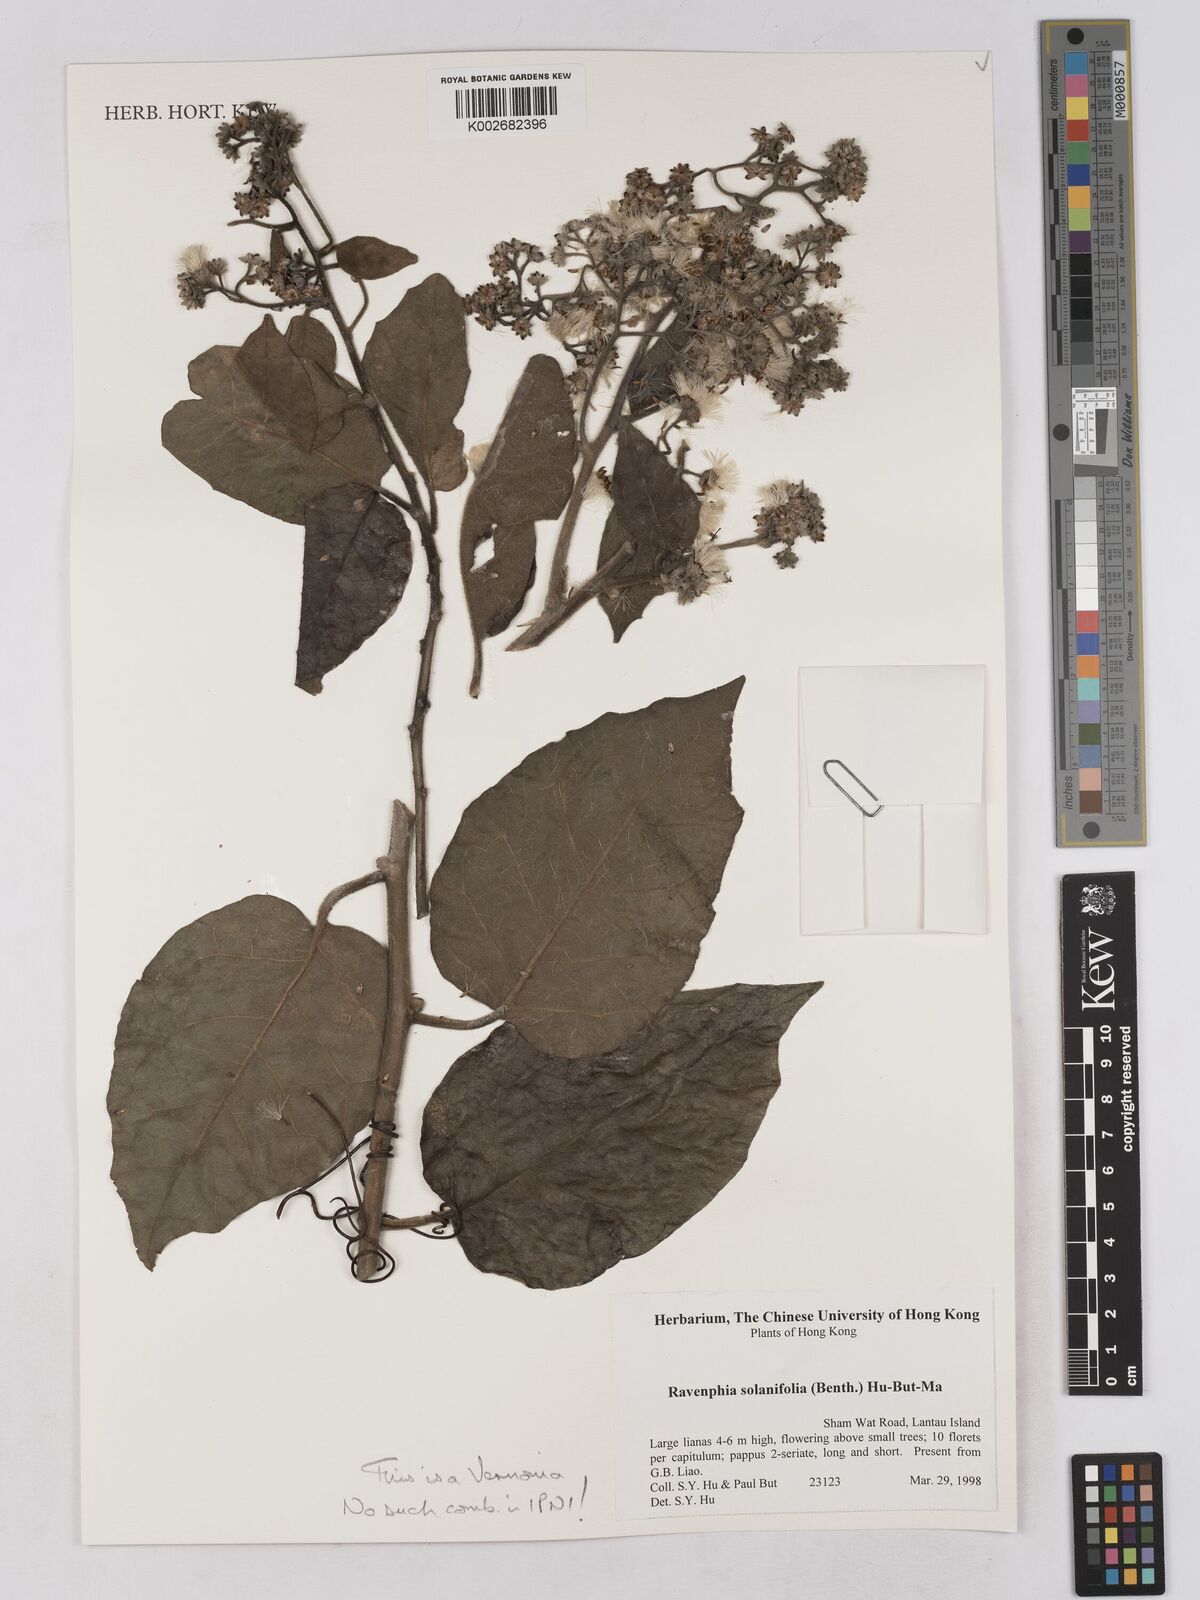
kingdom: Plantae
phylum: Tracheophyta
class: Magnoliopsida
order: Asterales
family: Asteraceae
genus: Strobocalyx
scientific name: Strobocalyx solanifolia
